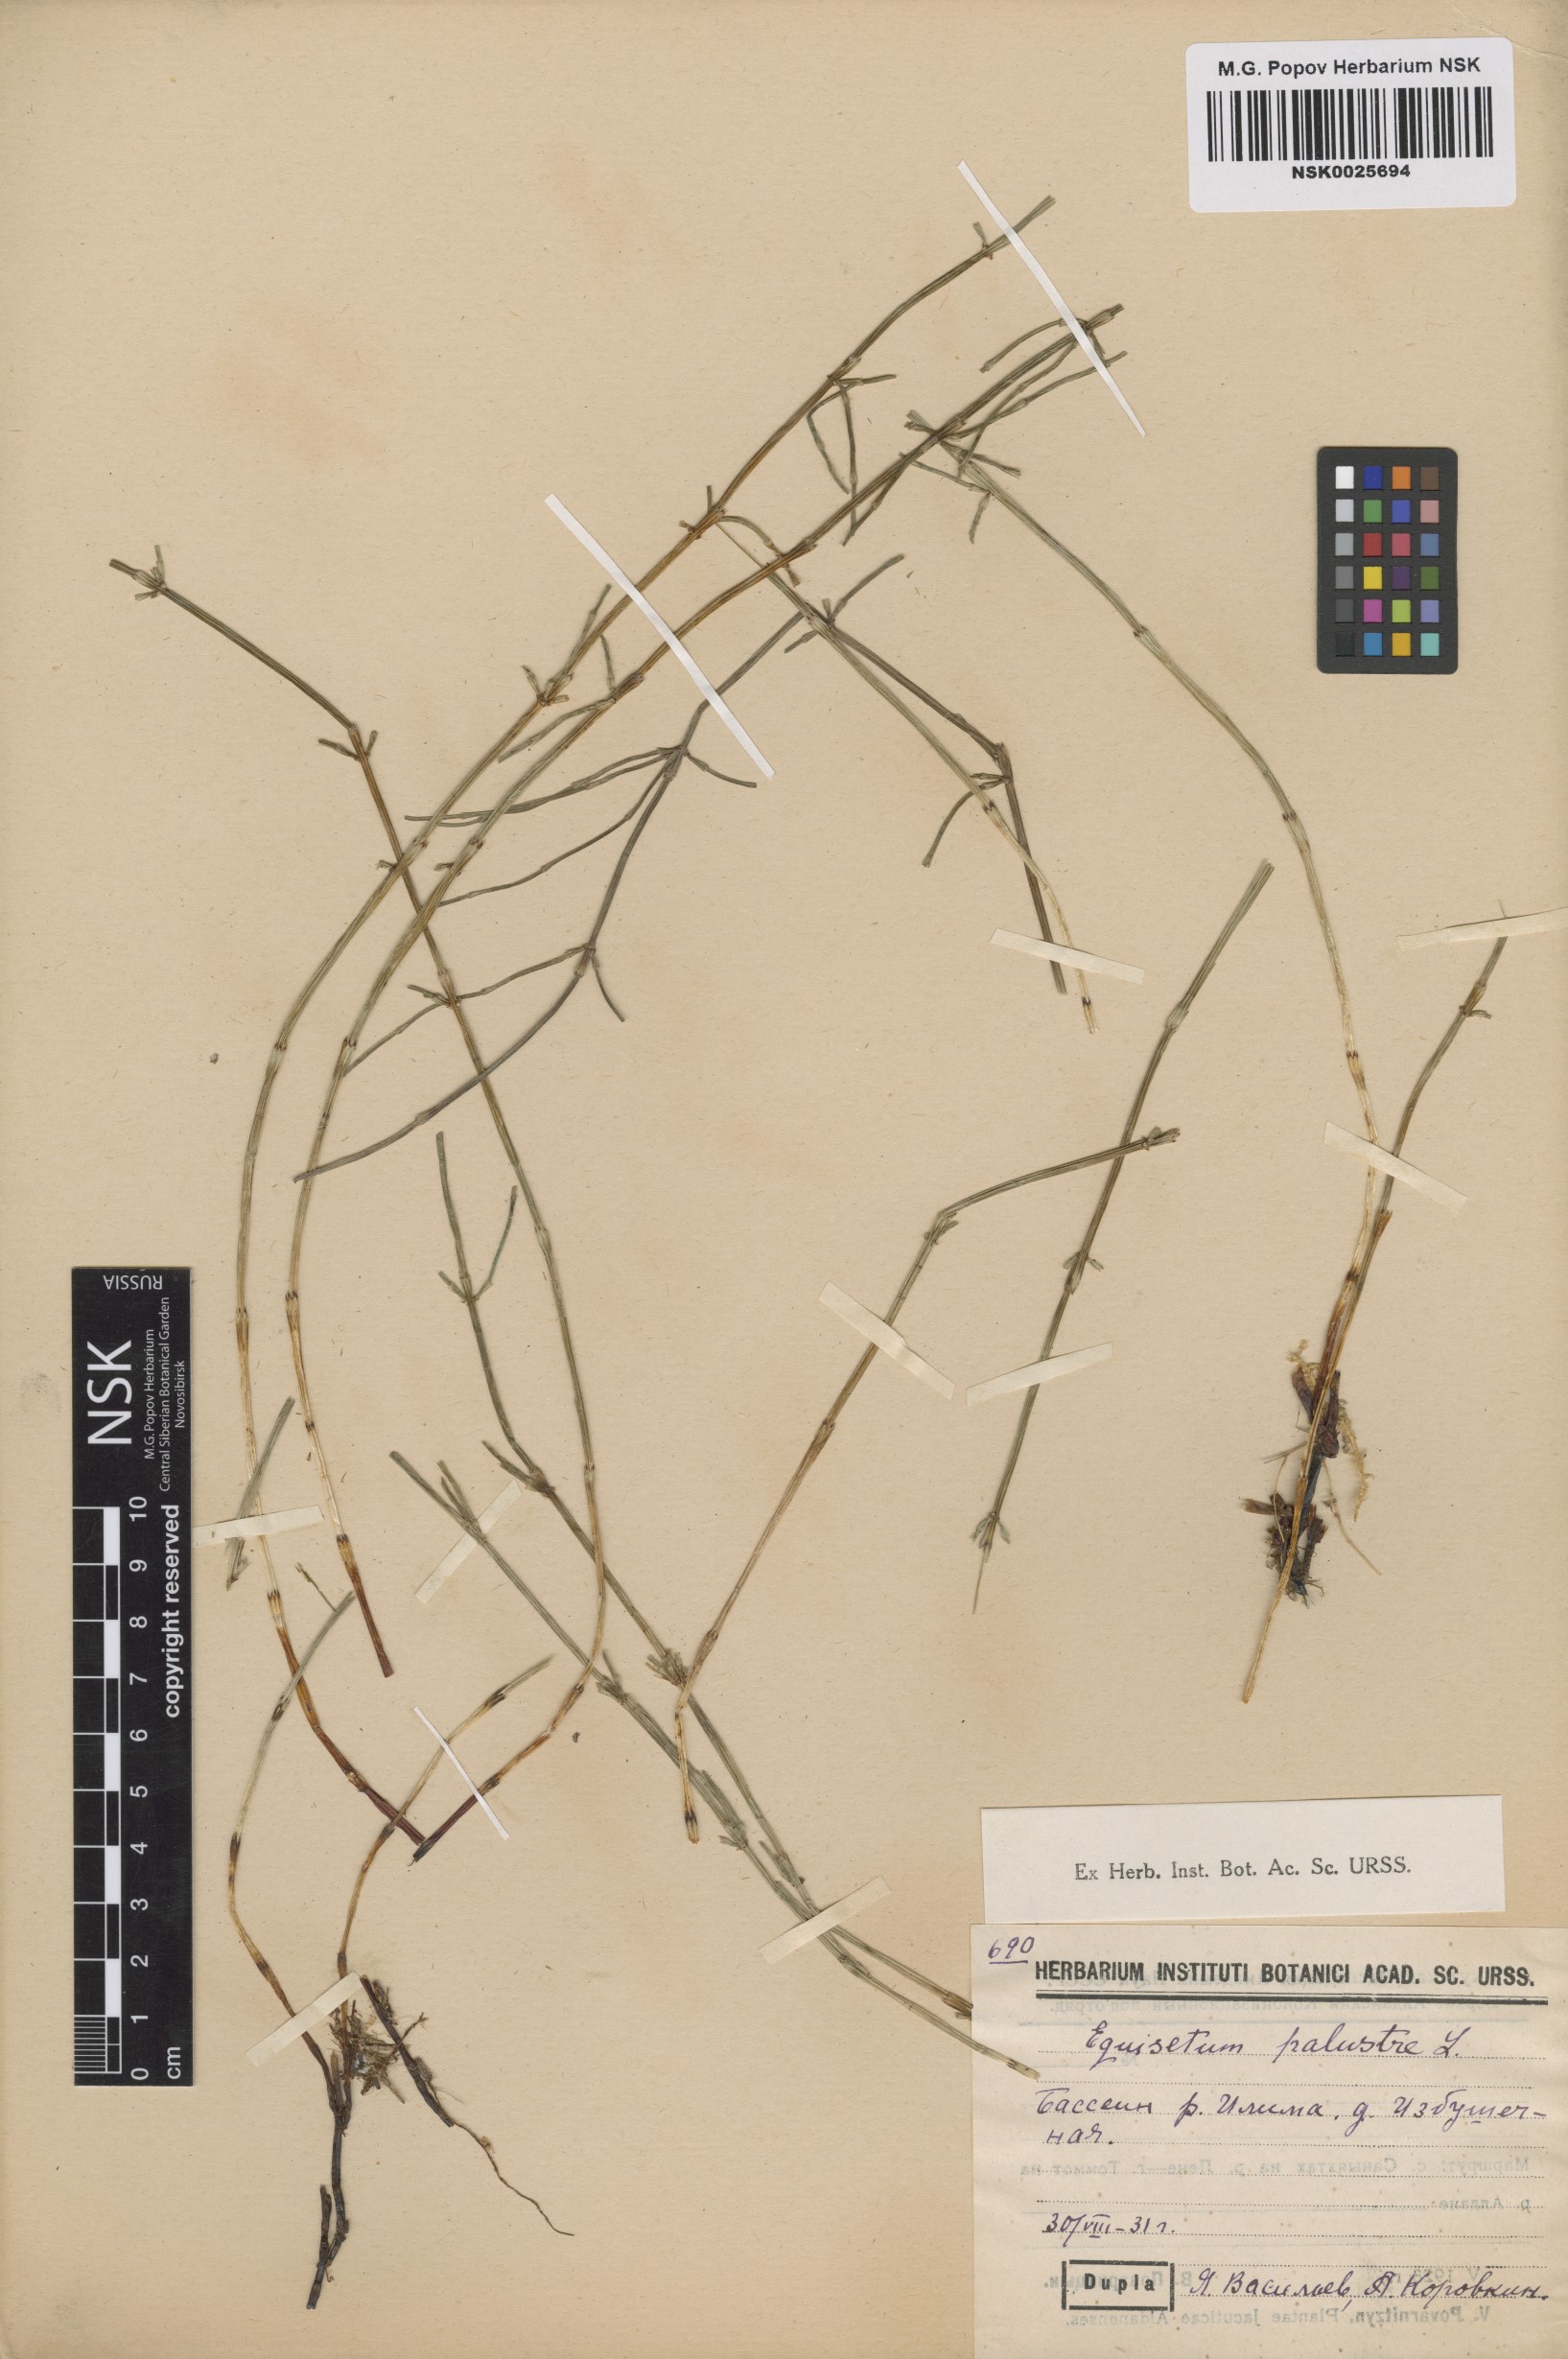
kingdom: Plantae
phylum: Tracheophyta
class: Polypodiopsida
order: Equisetales
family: Equisetaceae
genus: Equisetum
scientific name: Equisetum palustre
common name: Marsh horsetail
